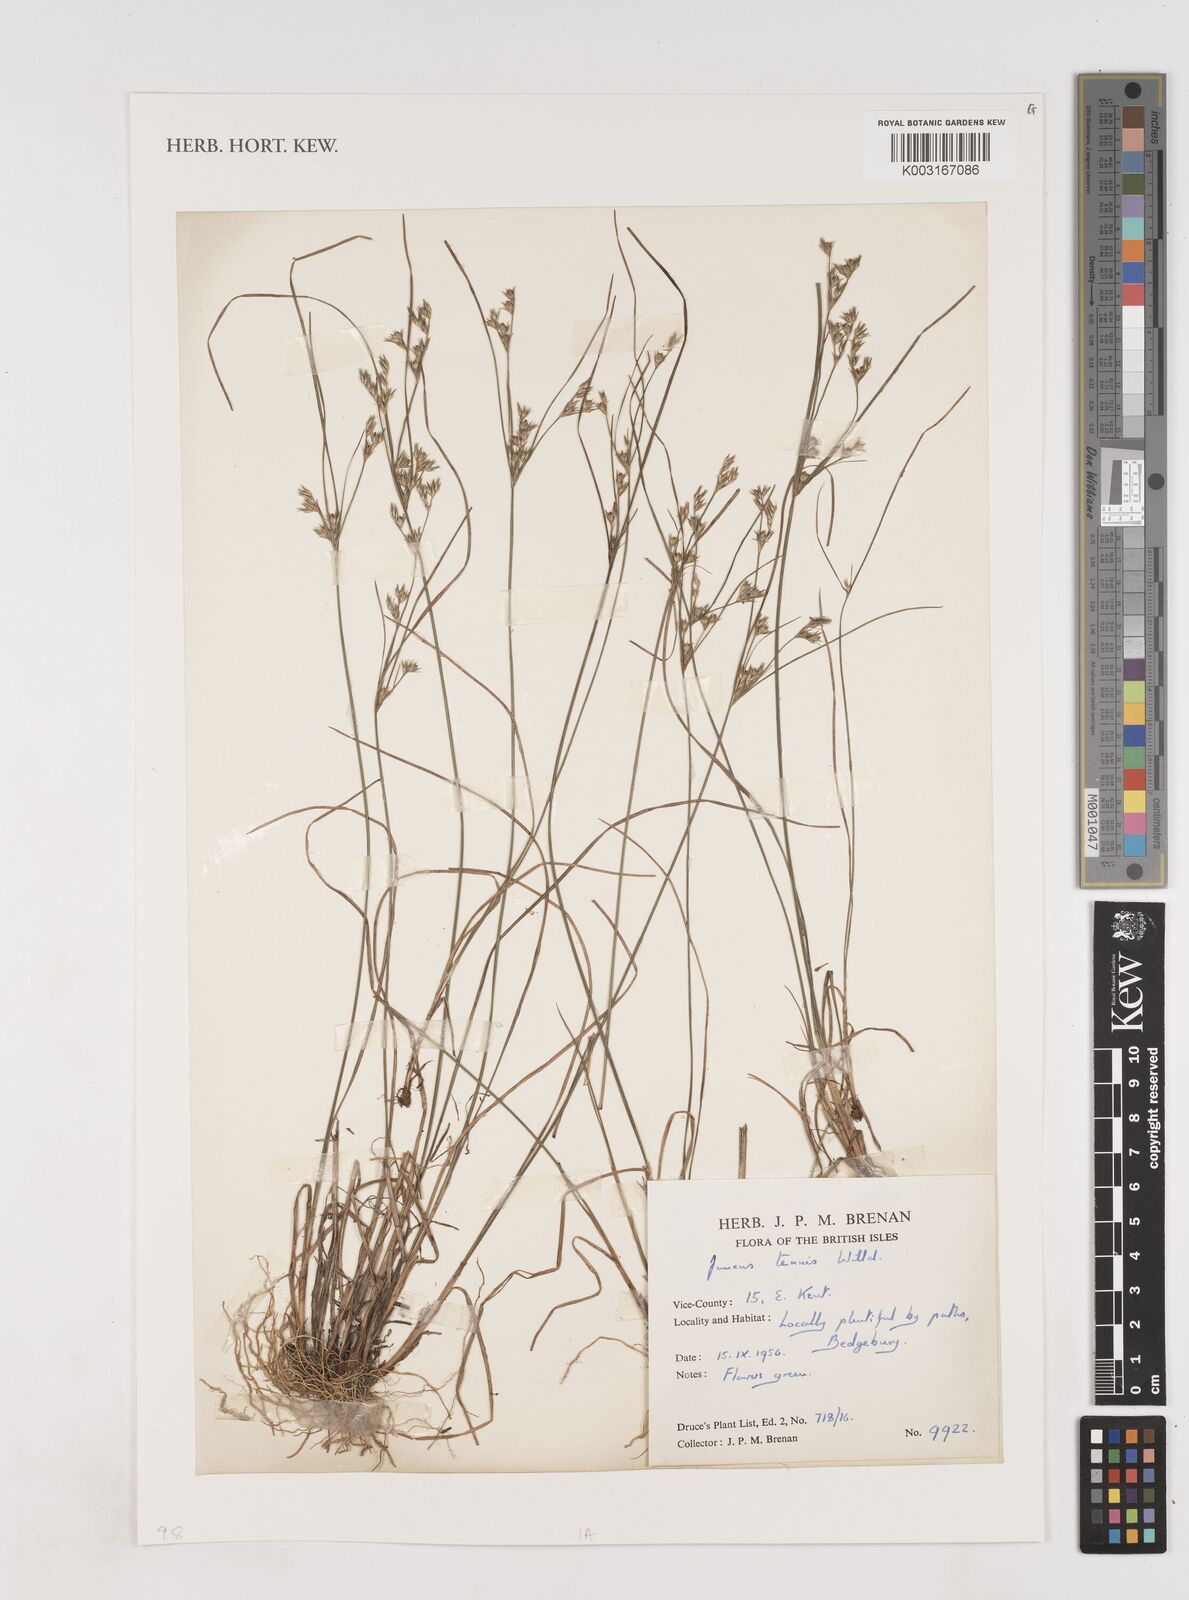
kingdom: Plantae
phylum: Tracheophyta
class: Liliopsida
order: Poales
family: Juncaceae
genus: Juncus
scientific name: Juncus tenuis
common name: Slender rush
